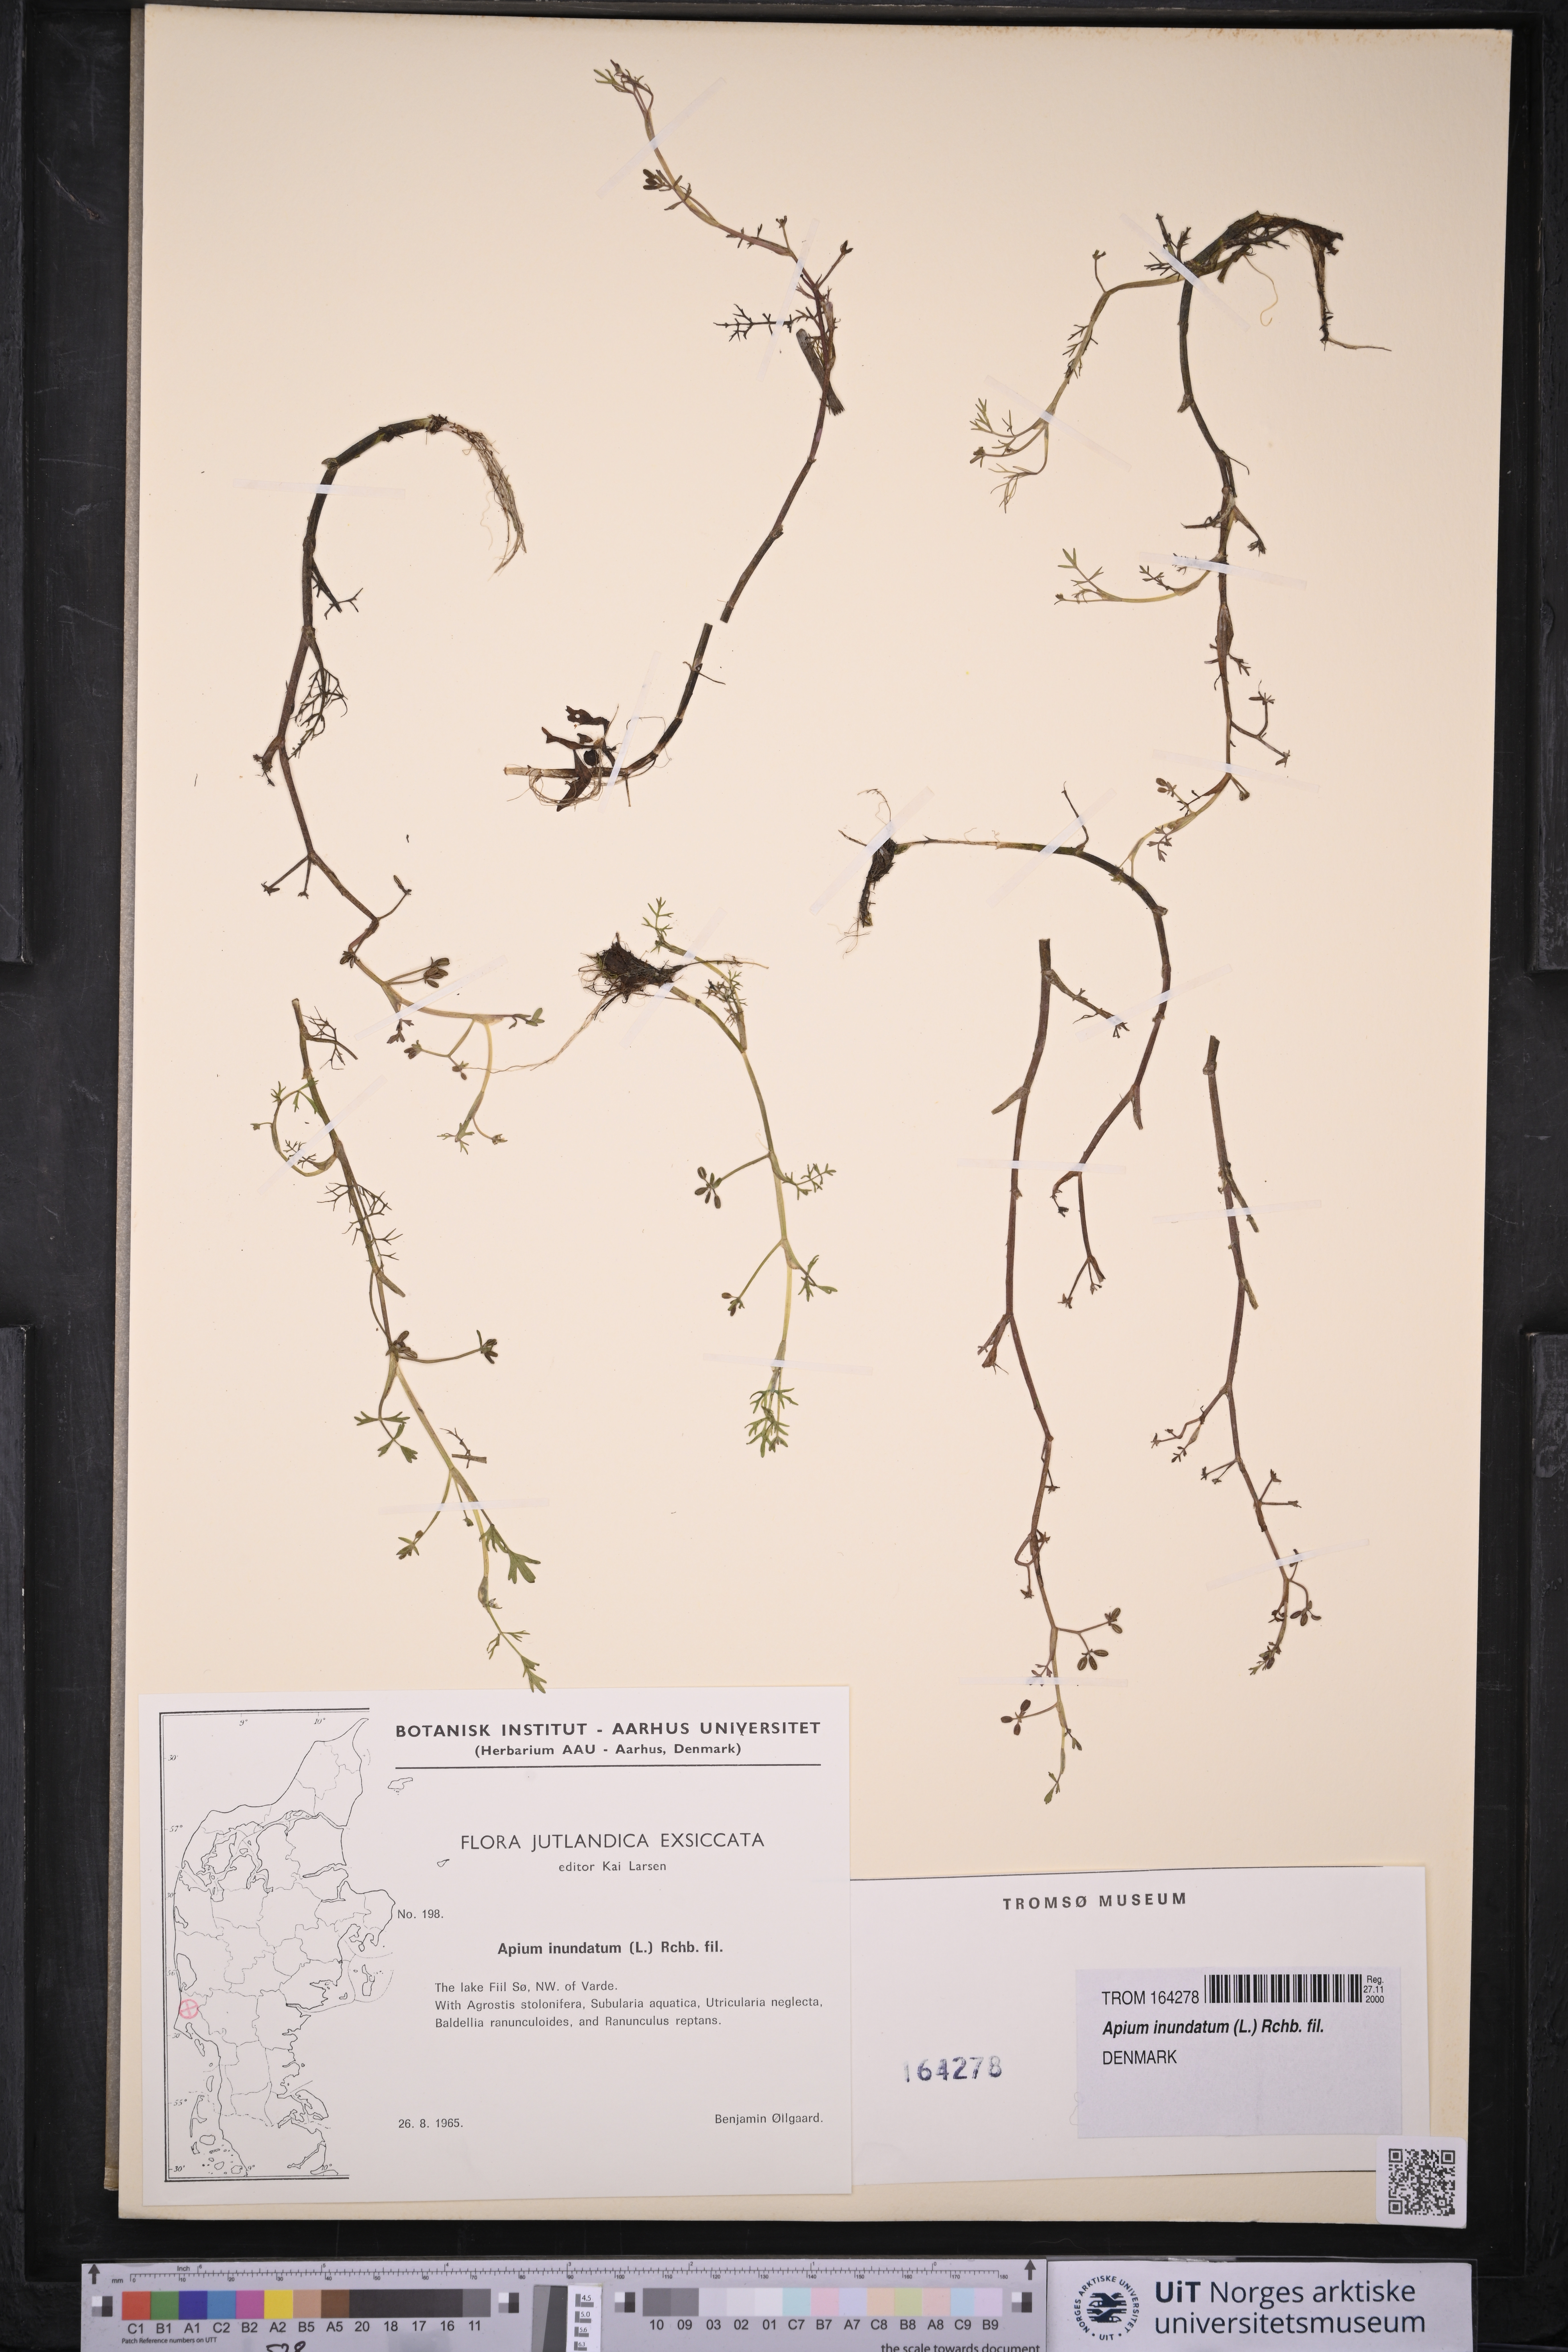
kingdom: Plantae
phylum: Tracheophyta
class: Magnoliopsida
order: Apiales
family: Apiaceae
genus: Helosciadium
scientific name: Helosciadium inundatum
